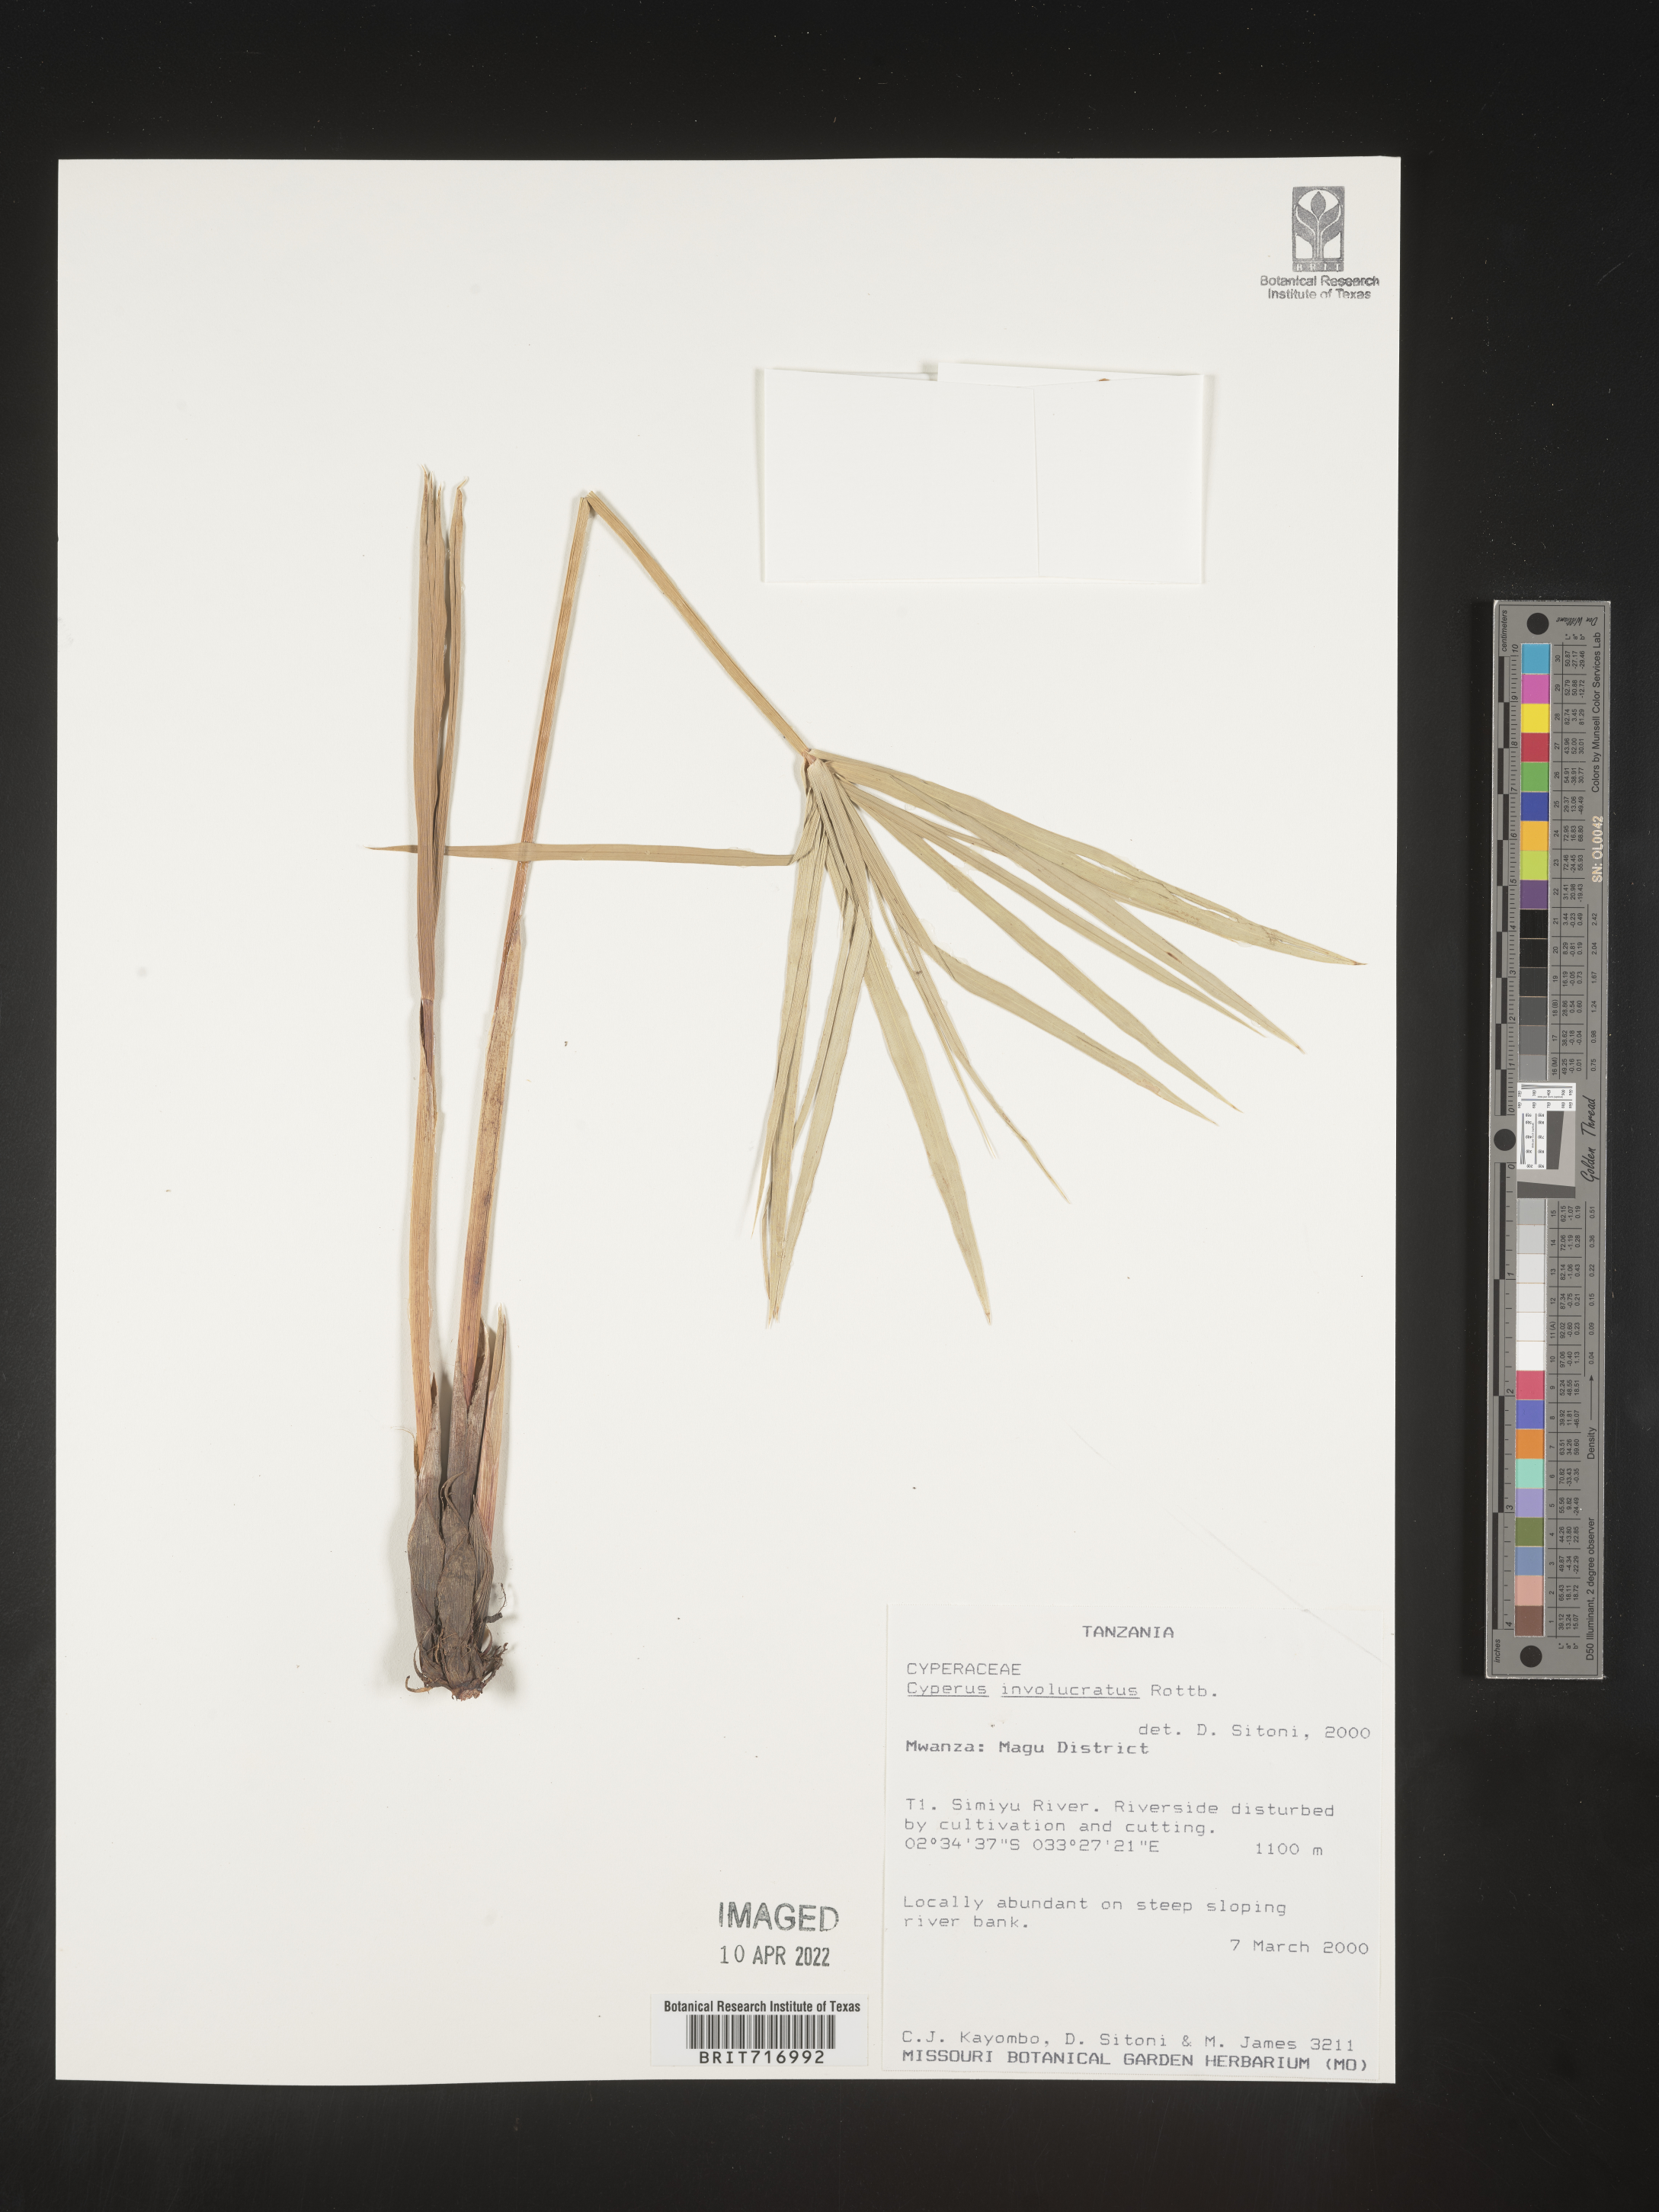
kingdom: Plantae
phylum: Tracheophyta
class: Liliopsida
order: Poales
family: Cyperaceae
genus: Cyperus
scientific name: Cyperus
